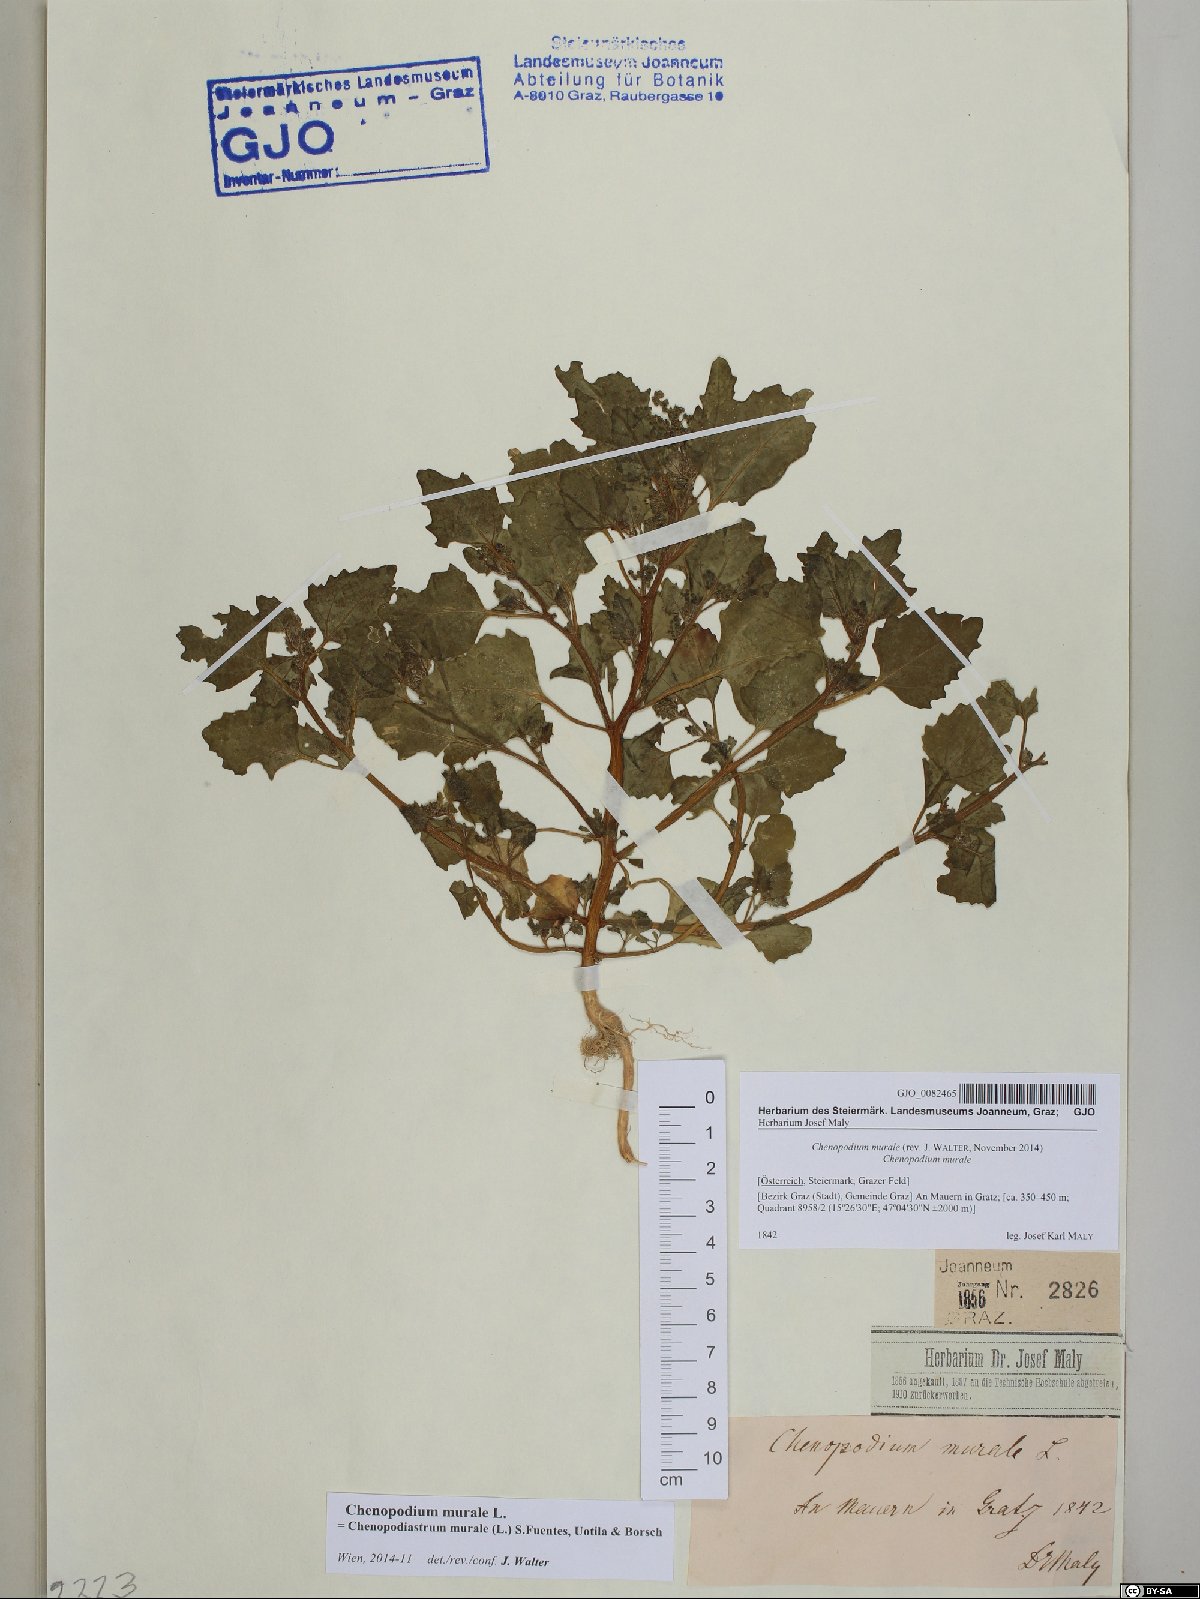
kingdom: Plantae
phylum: Tracheophyta
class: Magnoliopsida
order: Caryophyllales
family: Amaranthaceae
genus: Chenopodiastrum
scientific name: Chenopodiastrum murale
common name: Sowbane
